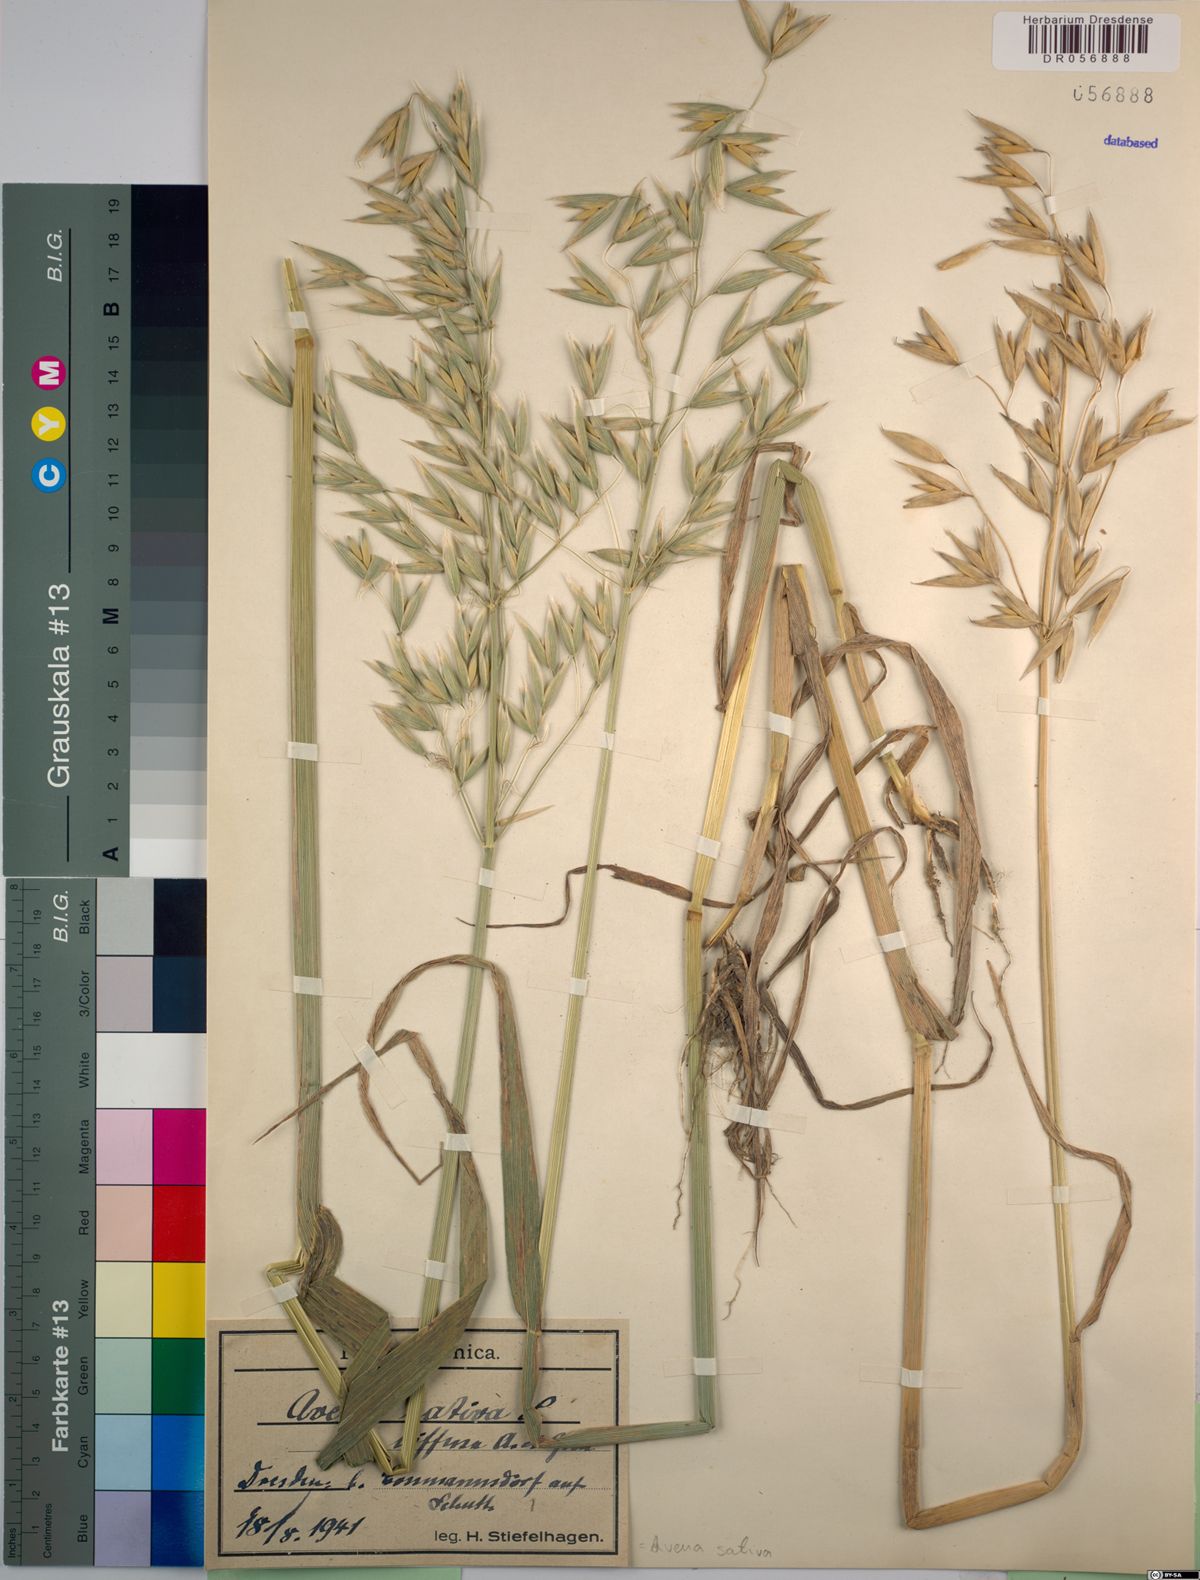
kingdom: Plantae
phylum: Tracheophyta
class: Liliopsida
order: Poales
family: Poaceae
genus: Avena
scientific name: Avena sativa
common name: Oat
